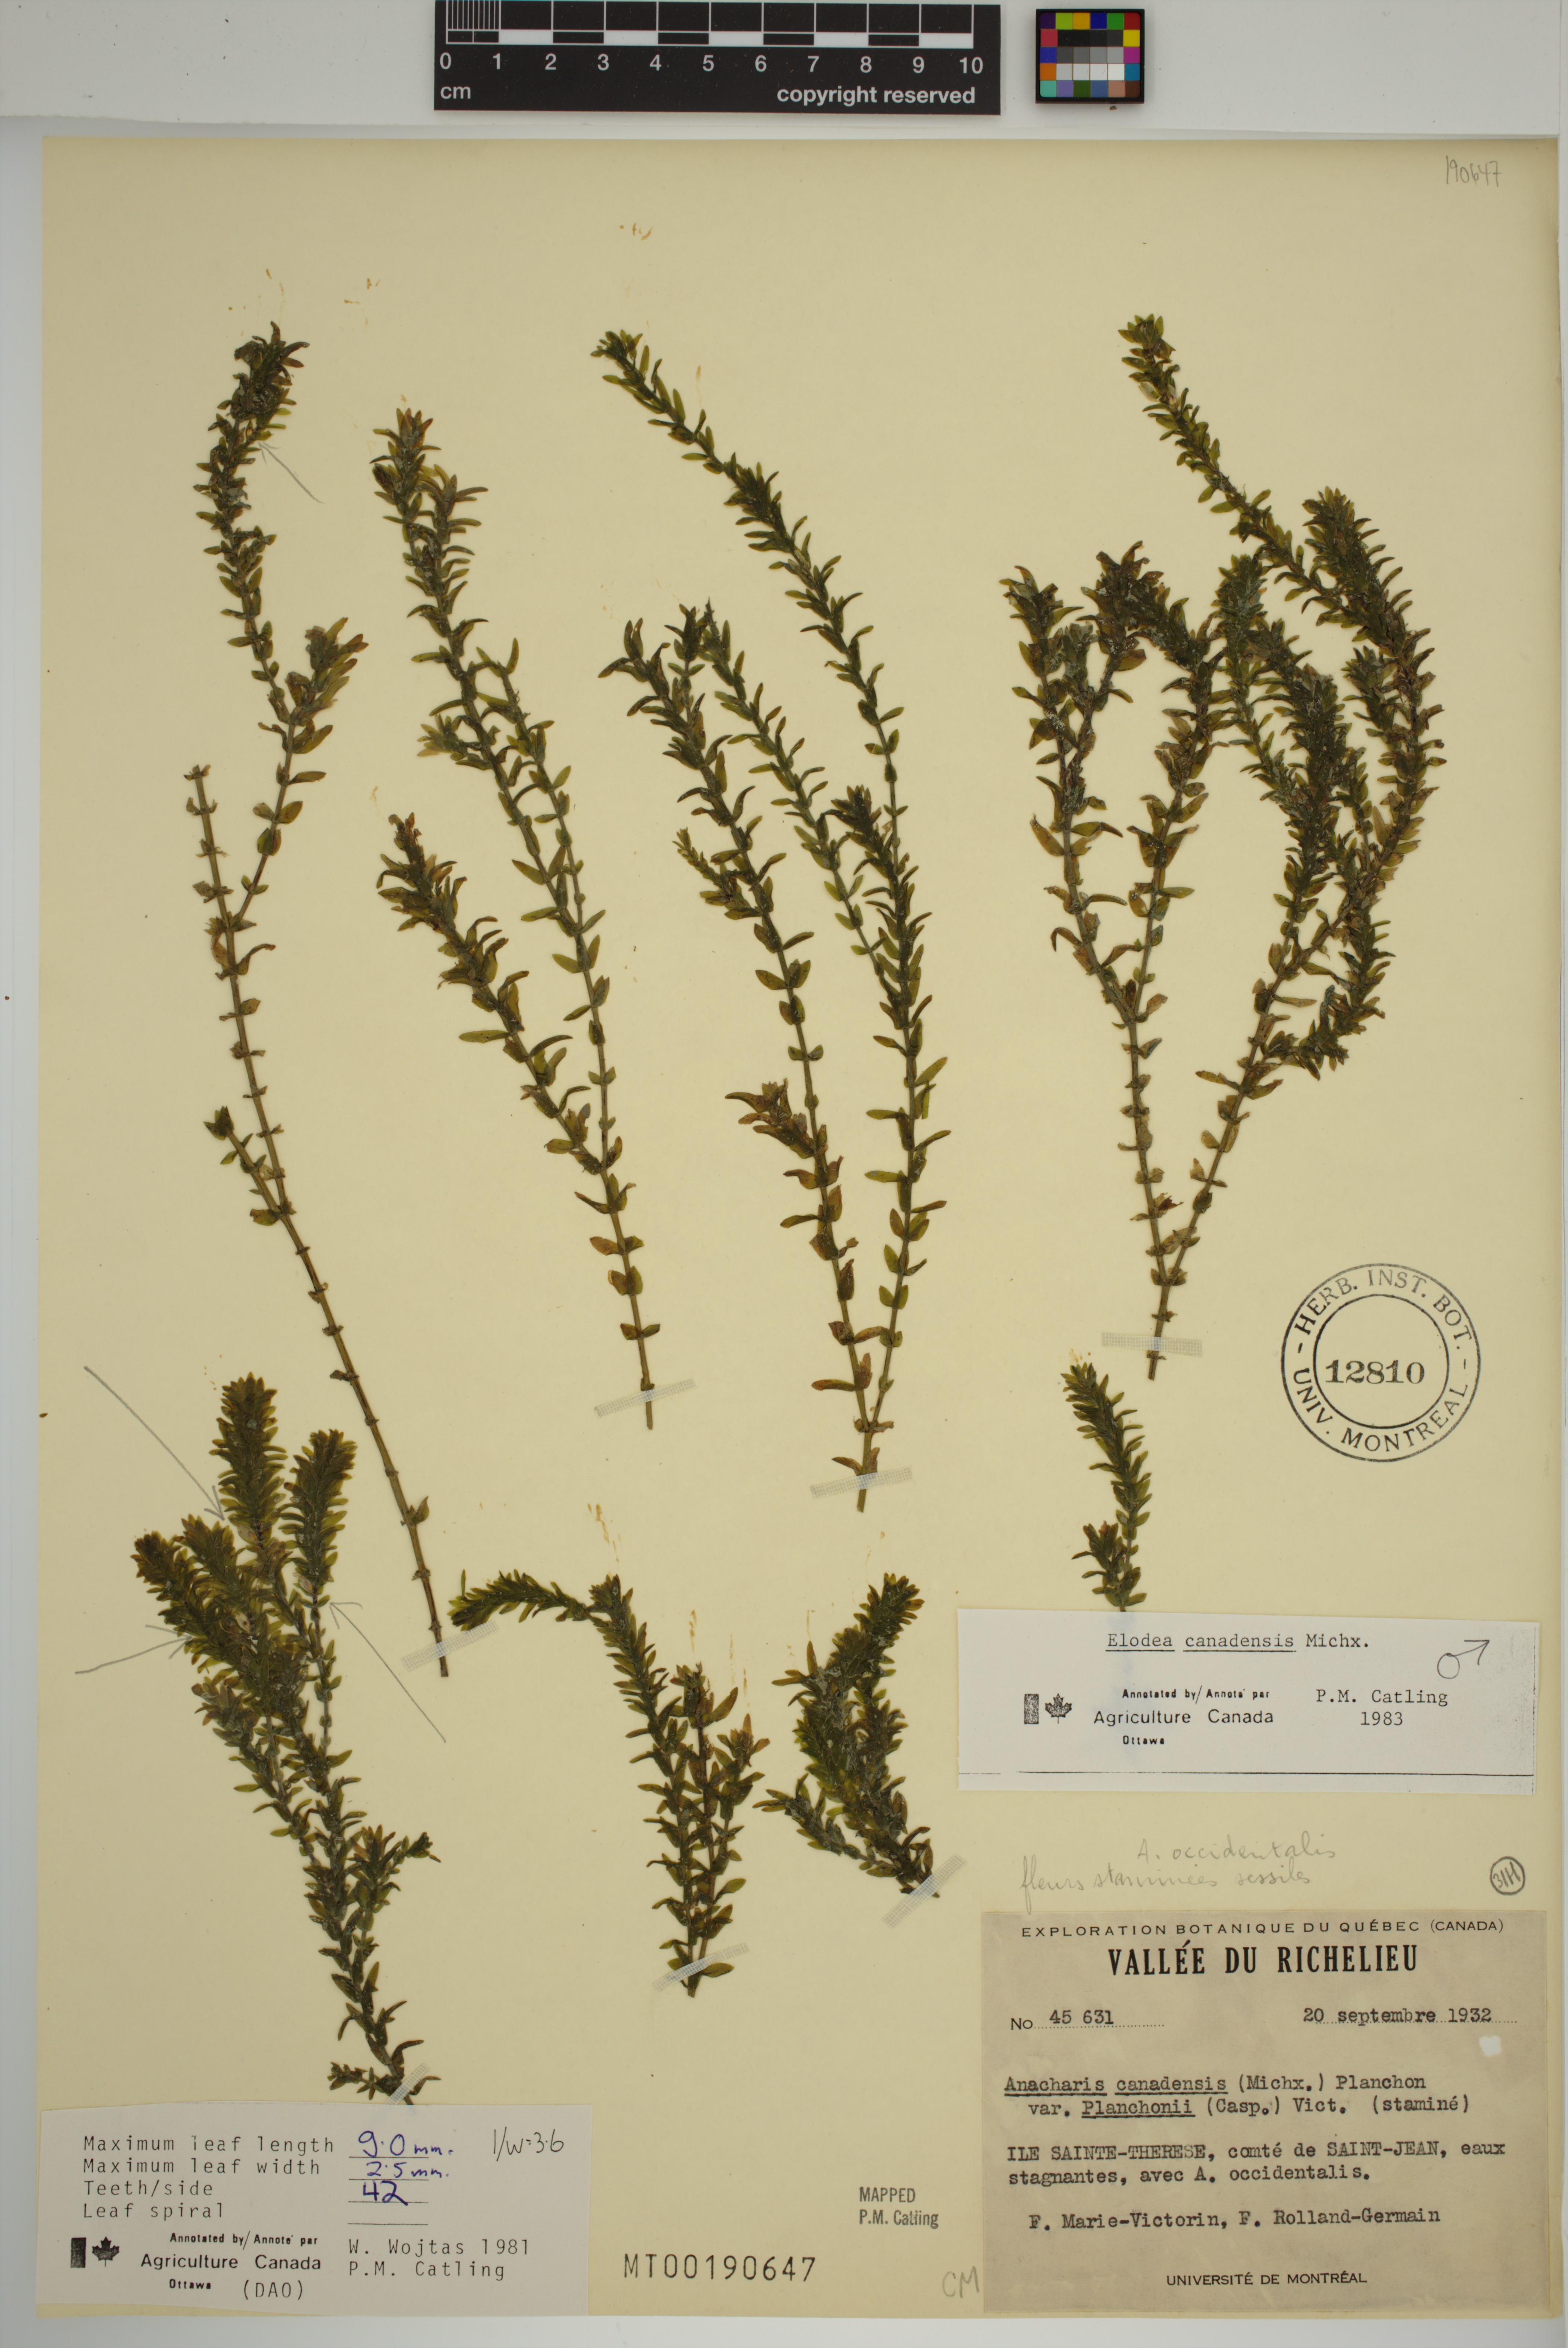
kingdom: Plantae
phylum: Tracheophyta
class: Liliopsida
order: Alismatales
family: Hydrocharitaceae
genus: Elodea
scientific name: Elodea canadensis
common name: Canadian waterweed
